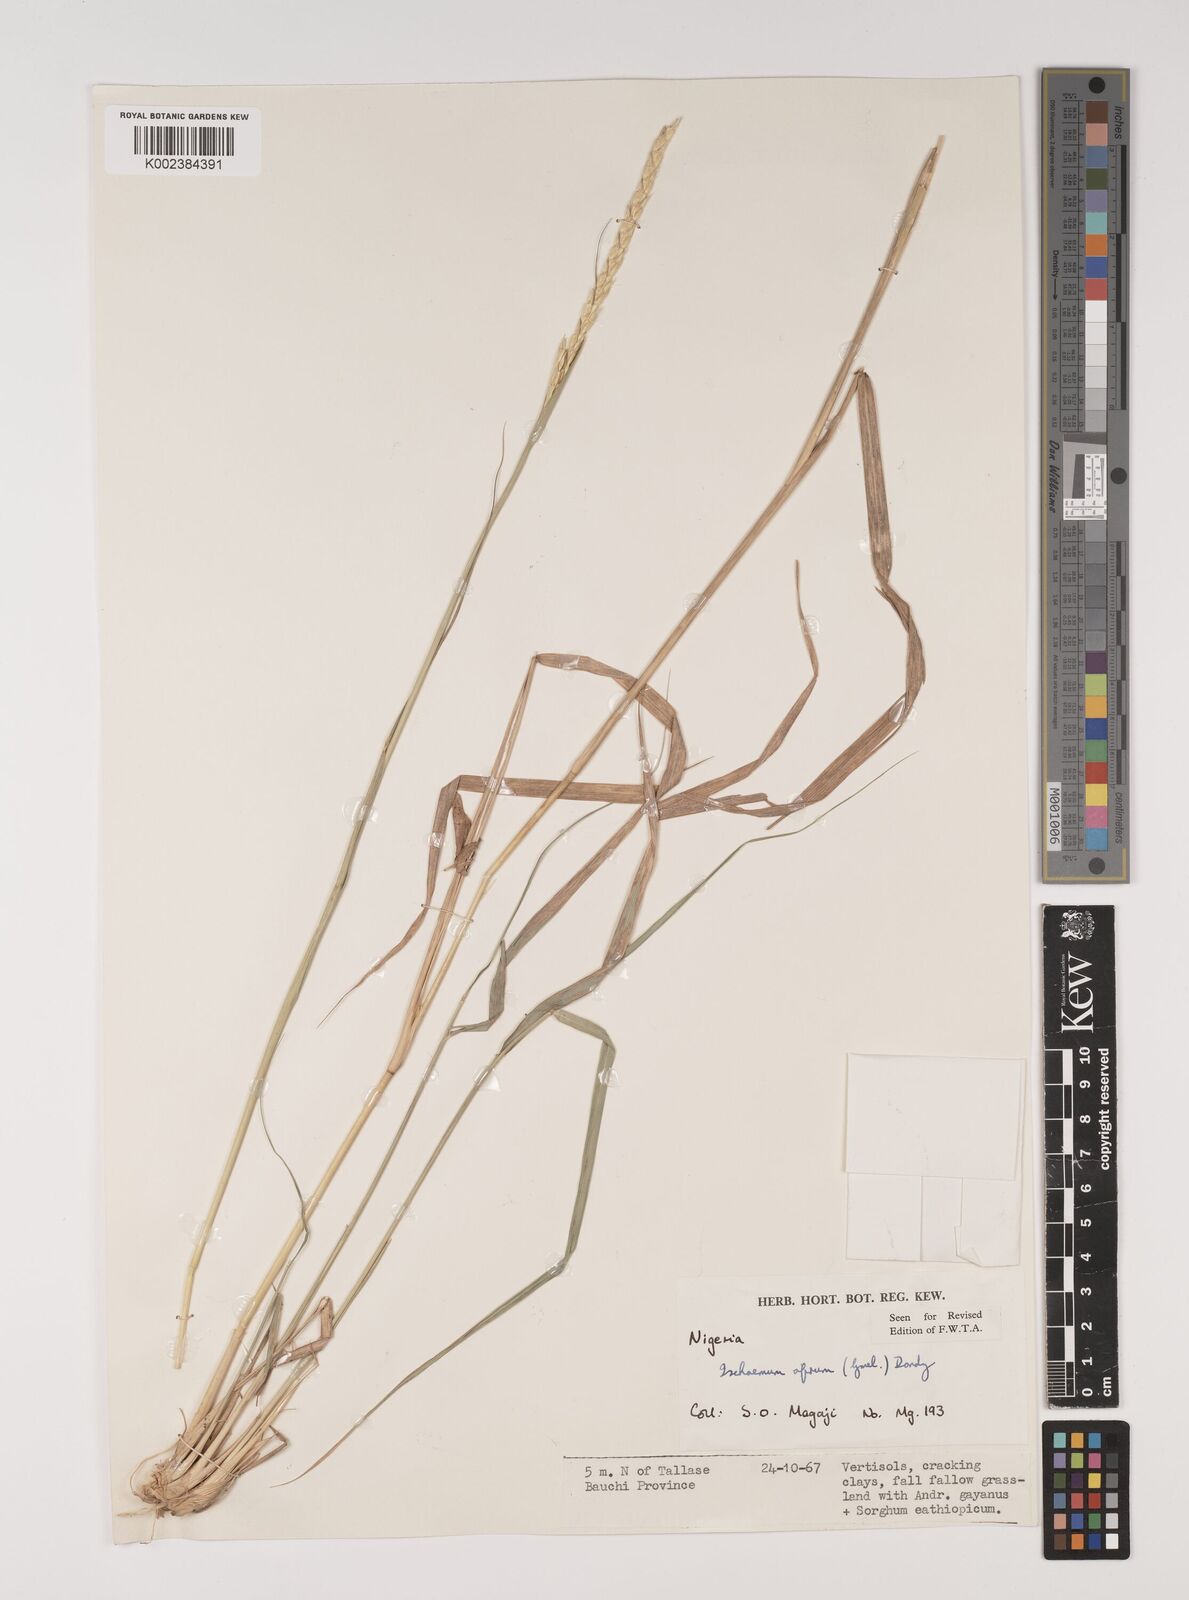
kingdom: Plantae
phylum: Tracheophyta
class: Liliopsida
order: Poales
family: Poaceae
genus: Ischaemum
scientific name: Ischaemum afrum
